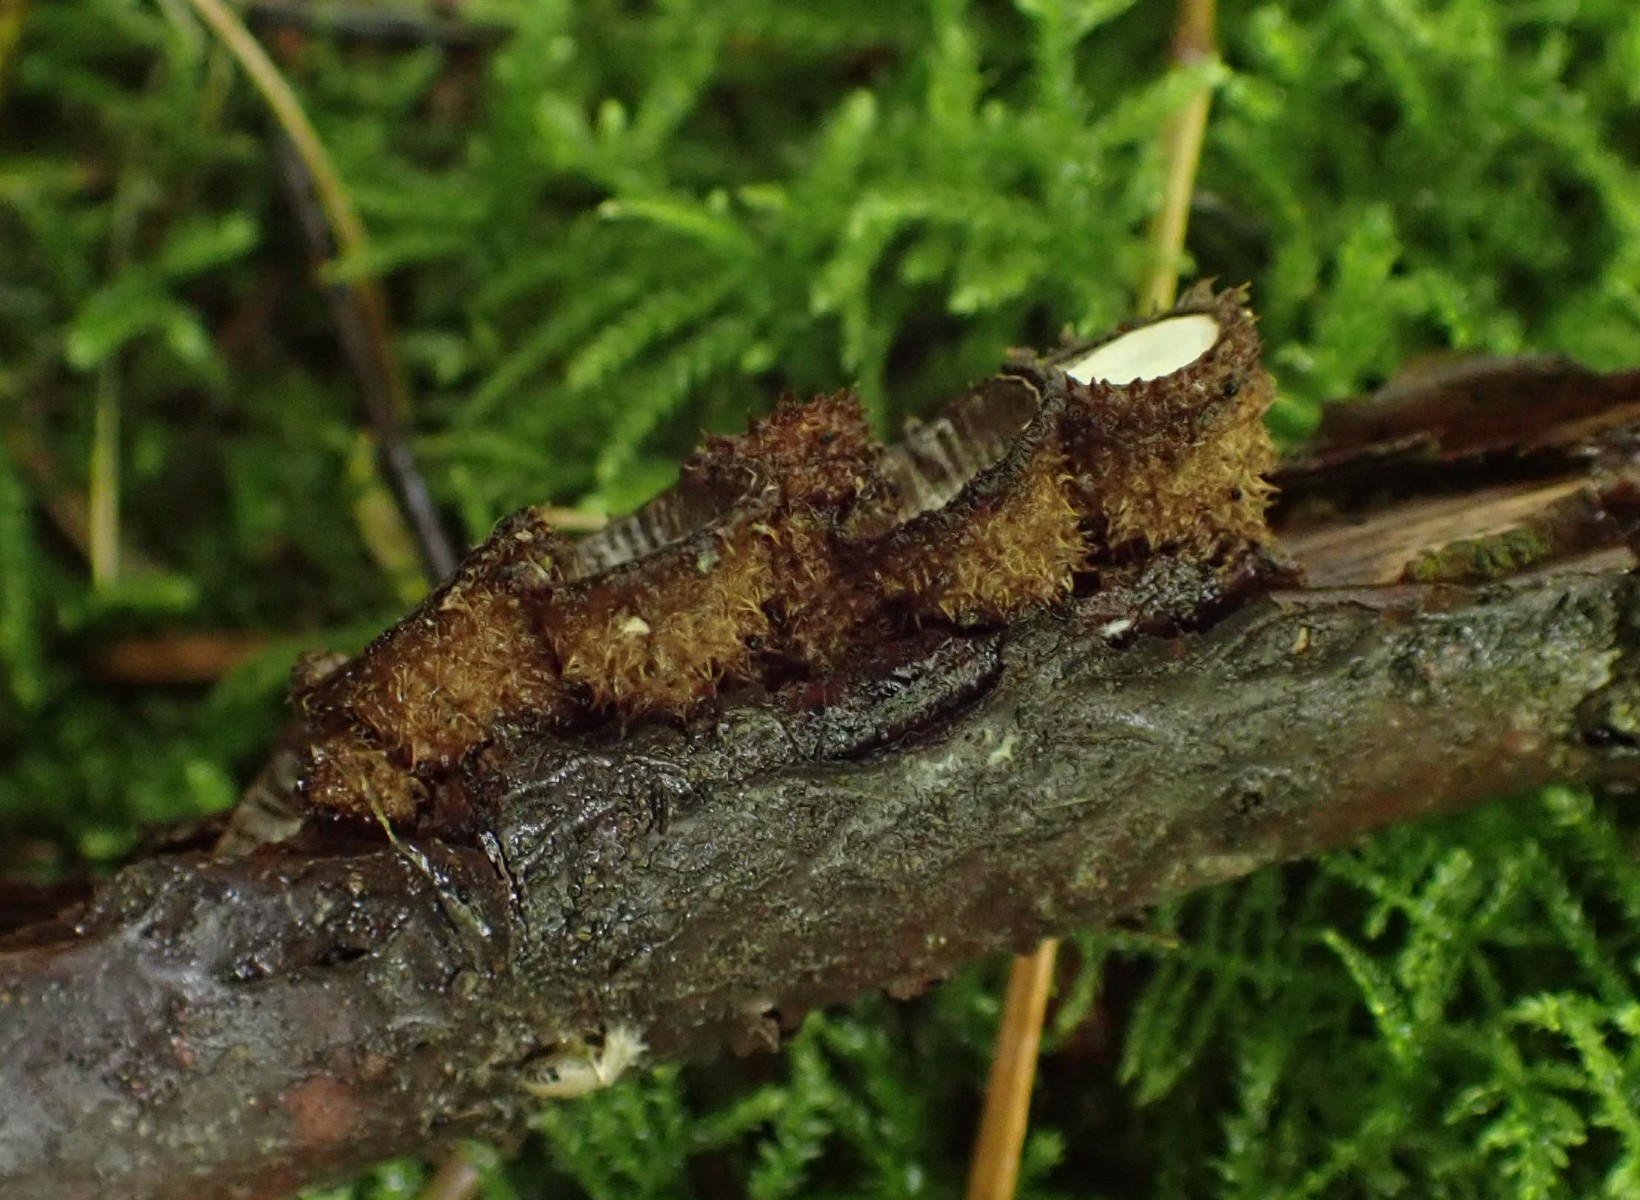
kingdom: Fungi
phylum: Basidiomycota
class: Agaricomycetes
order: Agaricales
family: Agaricaceae
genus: Cyathus
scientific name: Cyathus striatus
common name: stribet redesvamp
